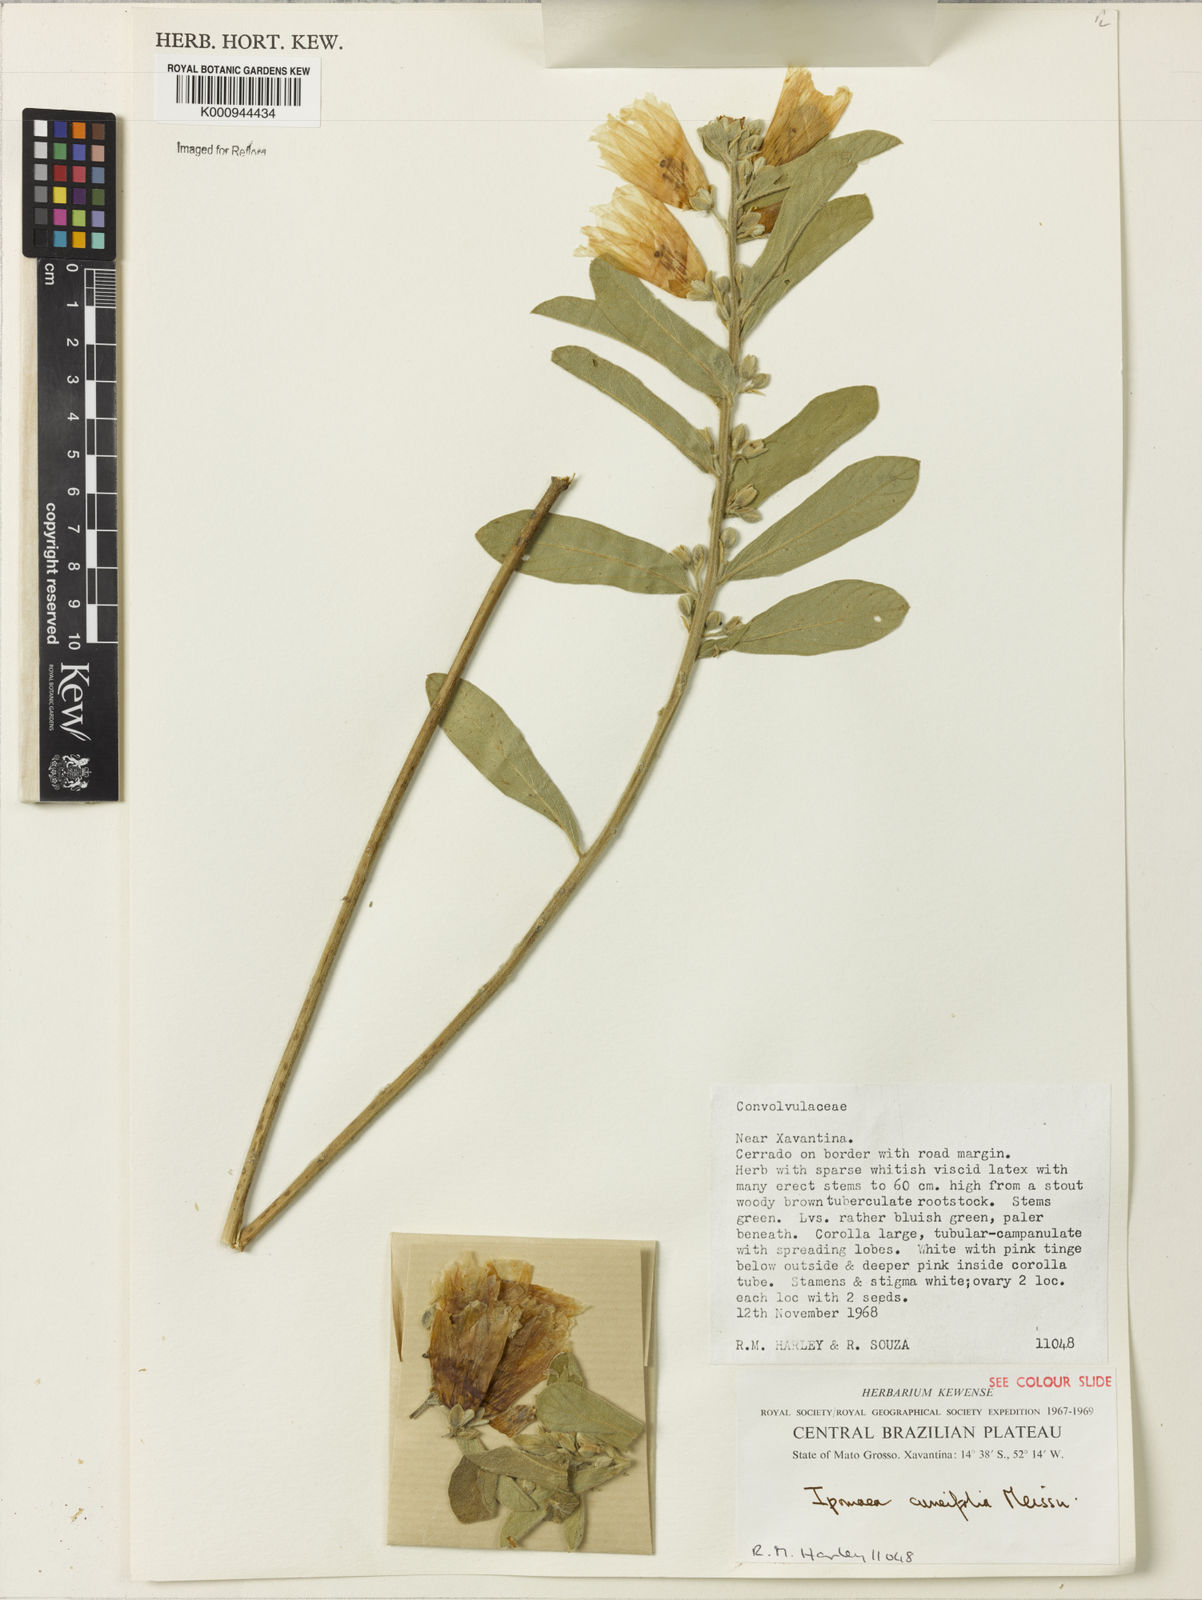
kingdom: Plantae
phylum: Tracheophyta
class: Magnoliopsida
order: Solanales
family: Convolvulaceae
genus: Ipomoea
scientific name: Ipomoea cuneifolia
